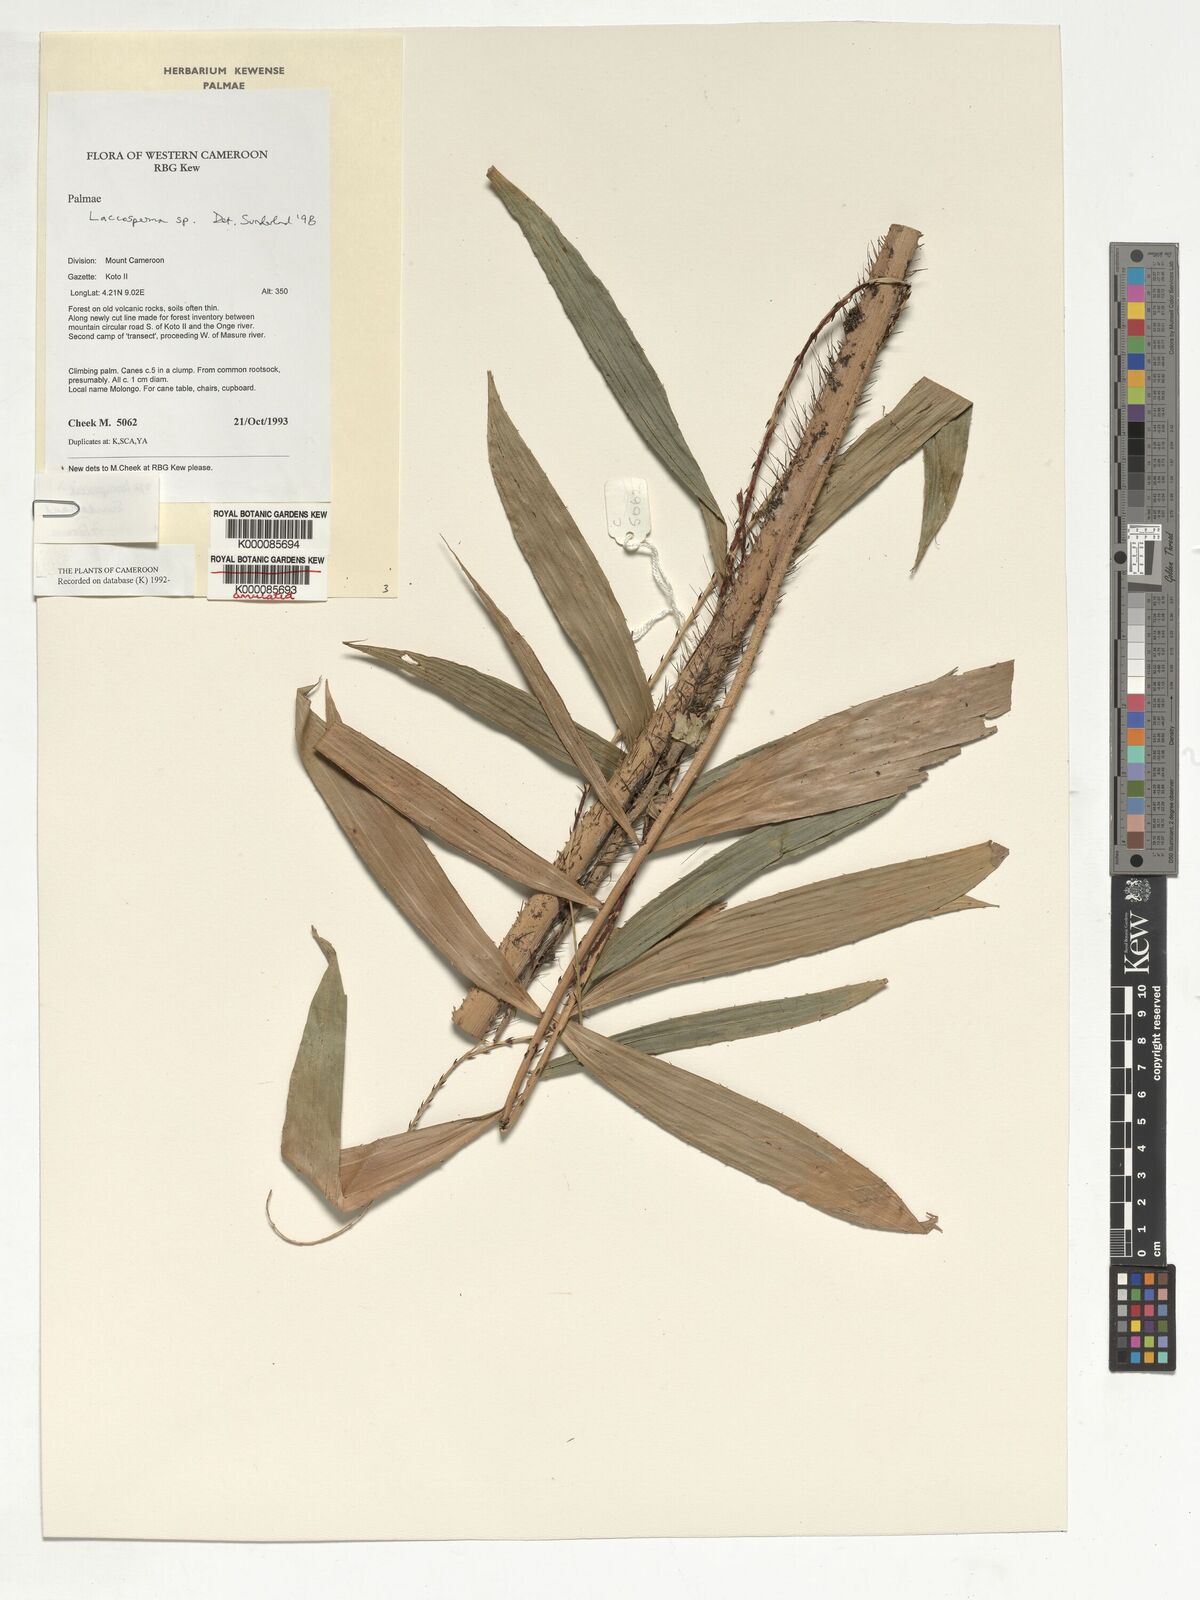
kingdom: Plantae
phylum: Tracheophyta
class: Liliopsida
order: Arecales
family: Arecaceae
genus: Laccosperma
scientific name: Laccosperma
